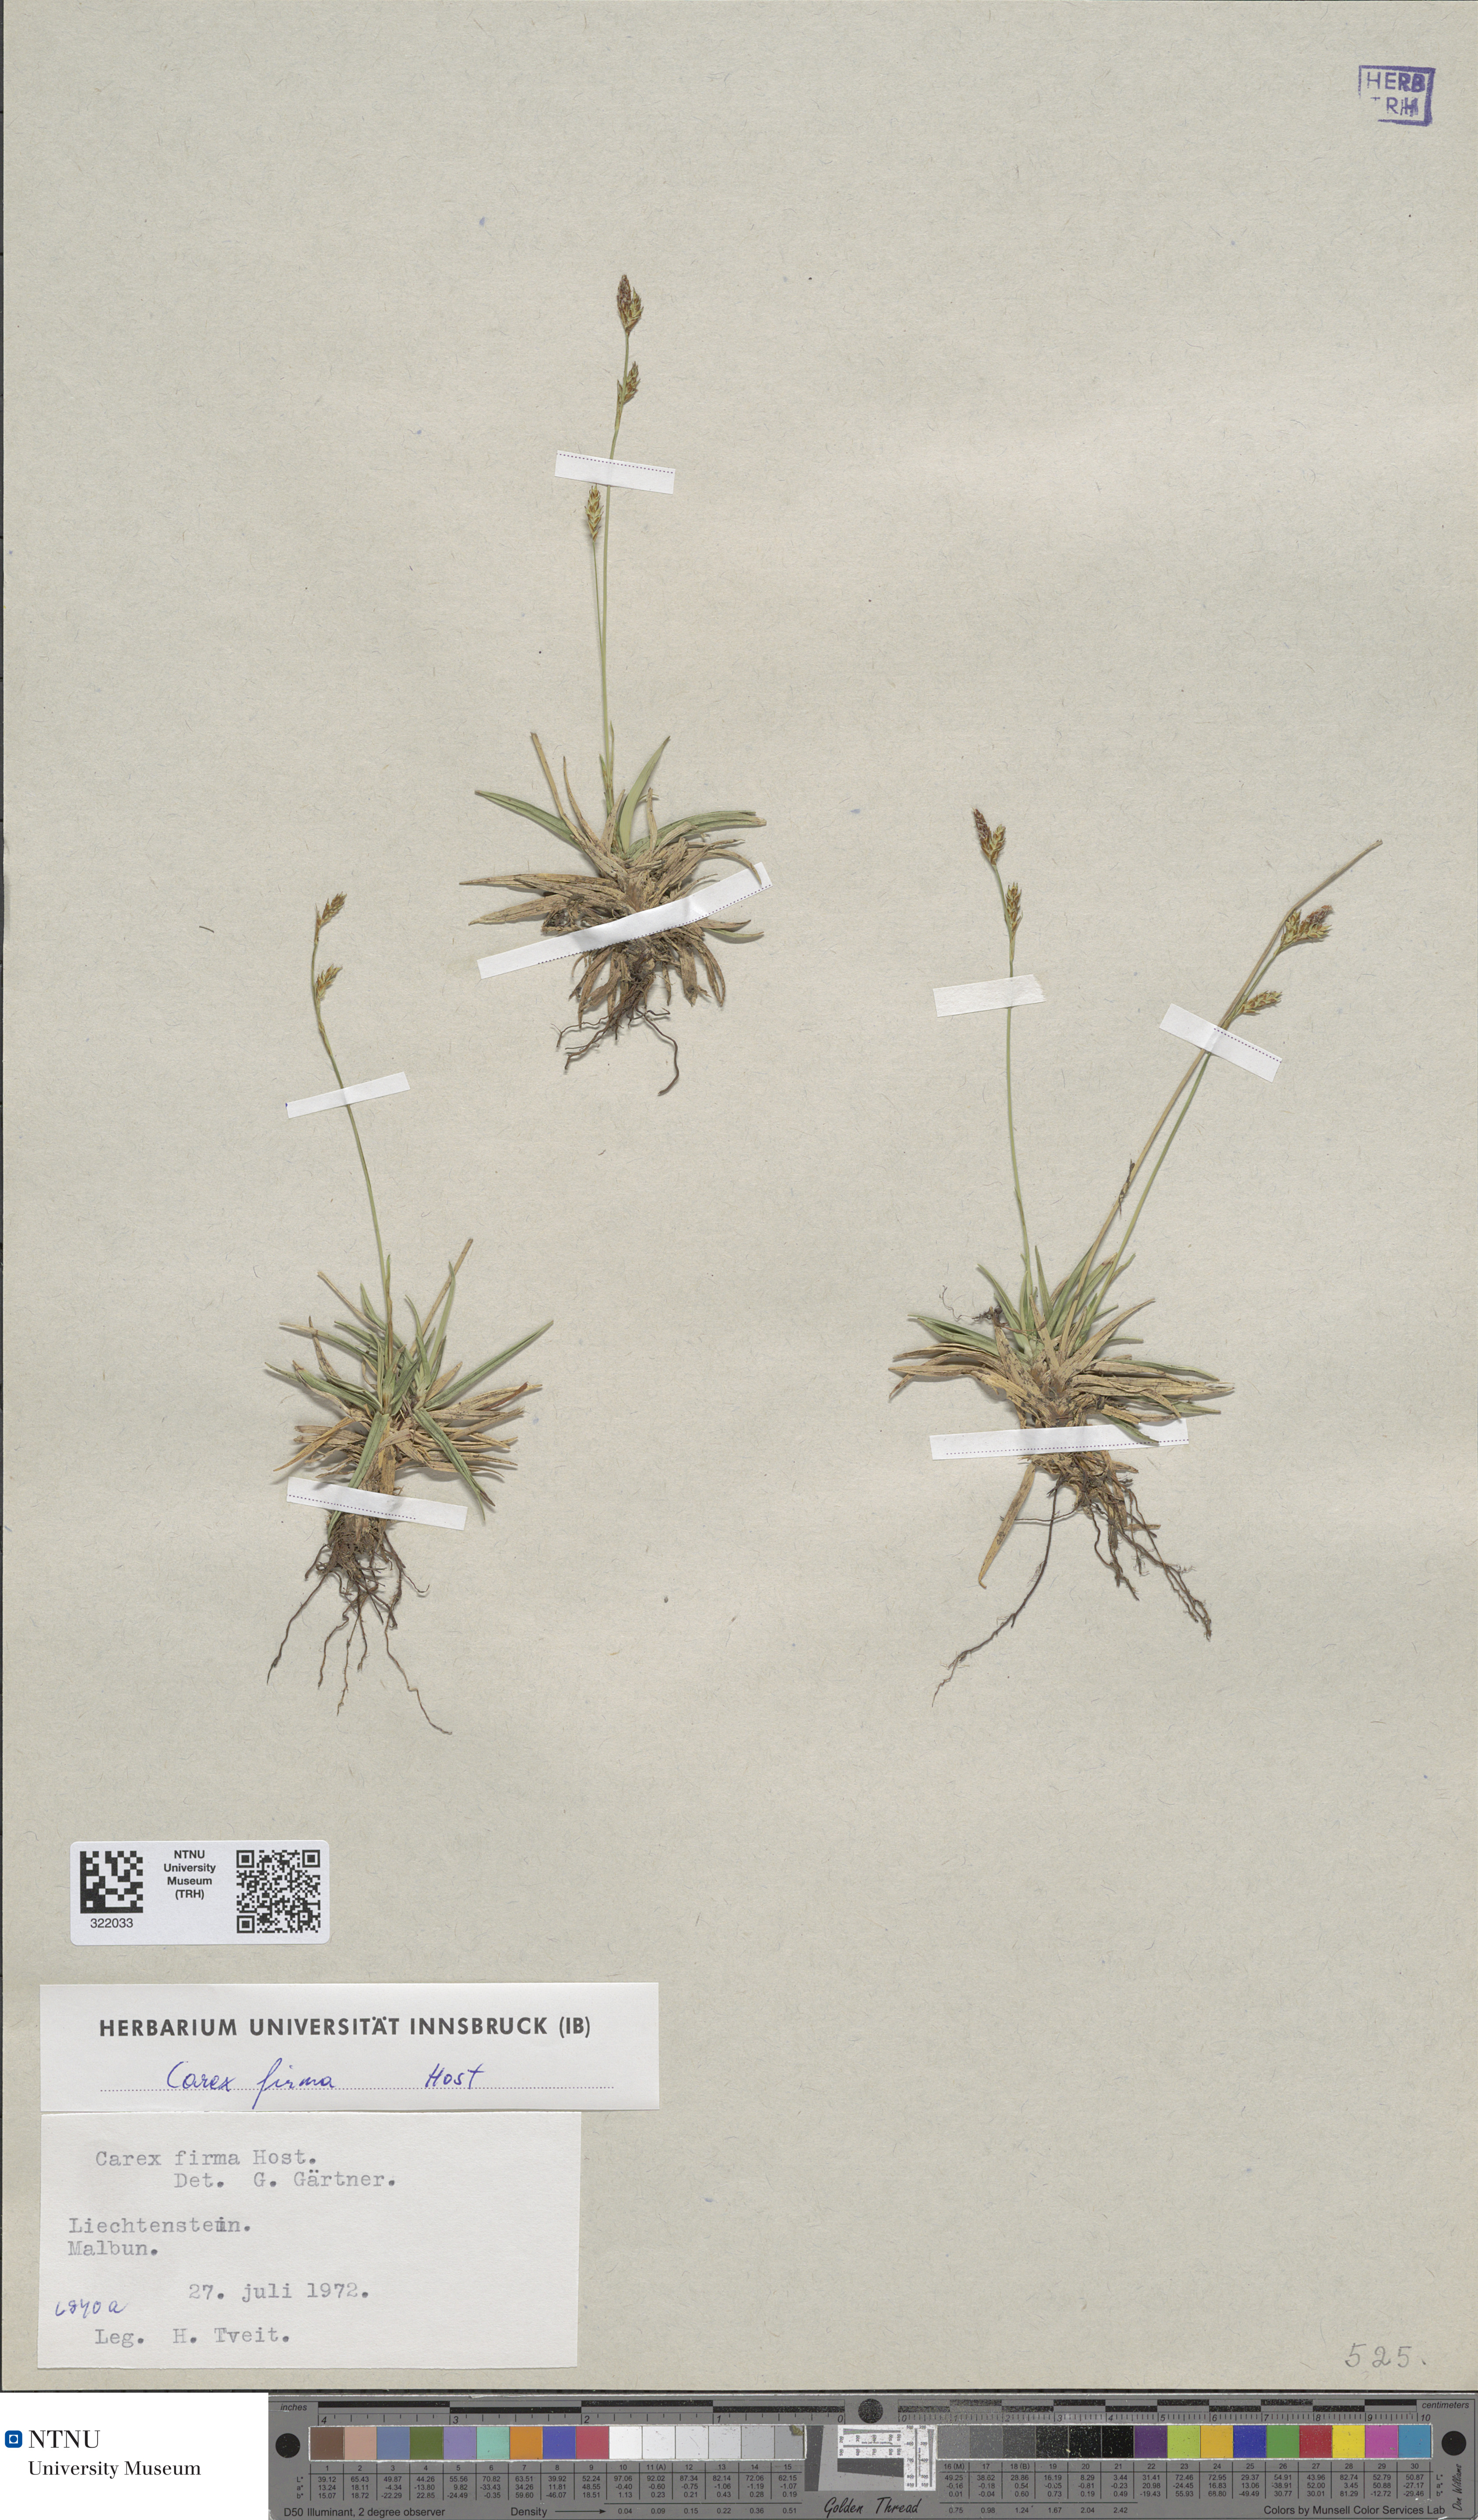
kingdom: Plantae
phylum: Tracheophyta
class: Liliopsida
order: Poales
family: Cyperaceae
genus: Carex
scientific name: Carex firma
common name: Dwarf pillow sedge
